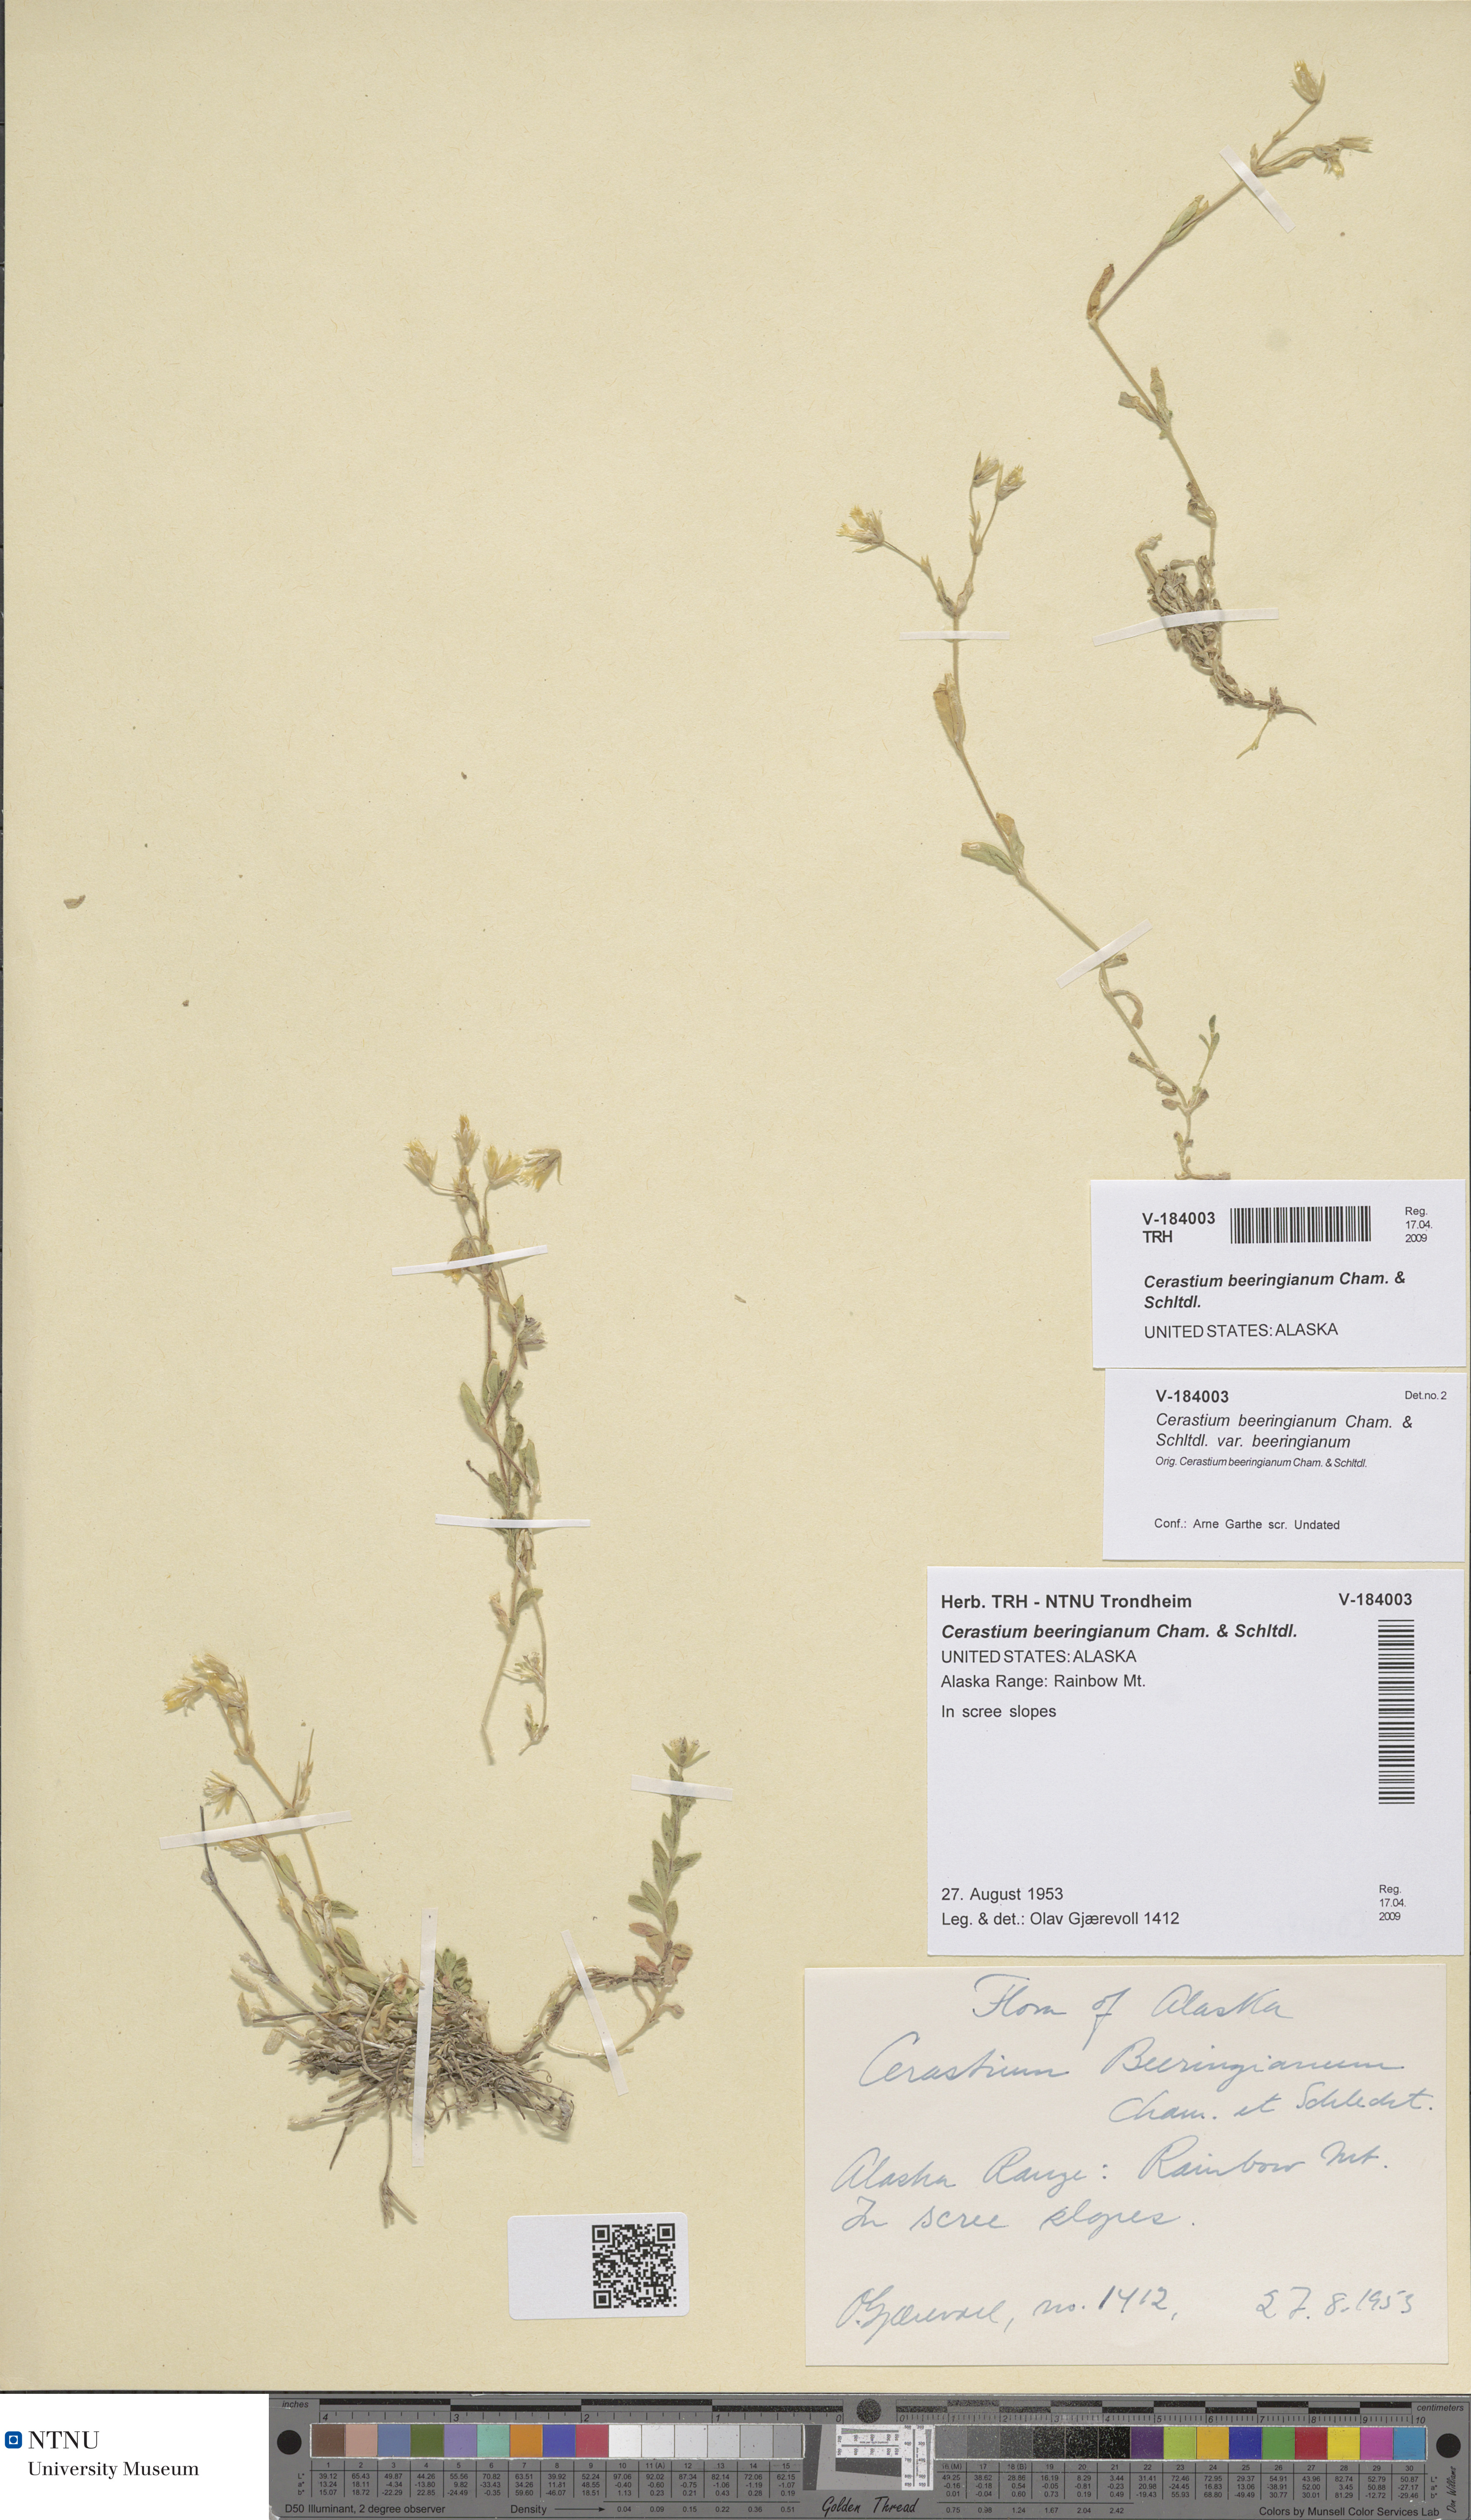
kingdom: Plantae
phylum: Tracheophyta
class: Magnoliopsida
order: Caryophyllales
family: Caryophyllaceae
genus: Cerastium
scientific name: Cerastium beeringianum
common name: Bering mouse-ear chickweed
